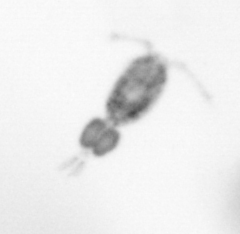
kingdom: Animalia
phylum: Arthropoda
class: Copepoda
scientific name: Copepoda
